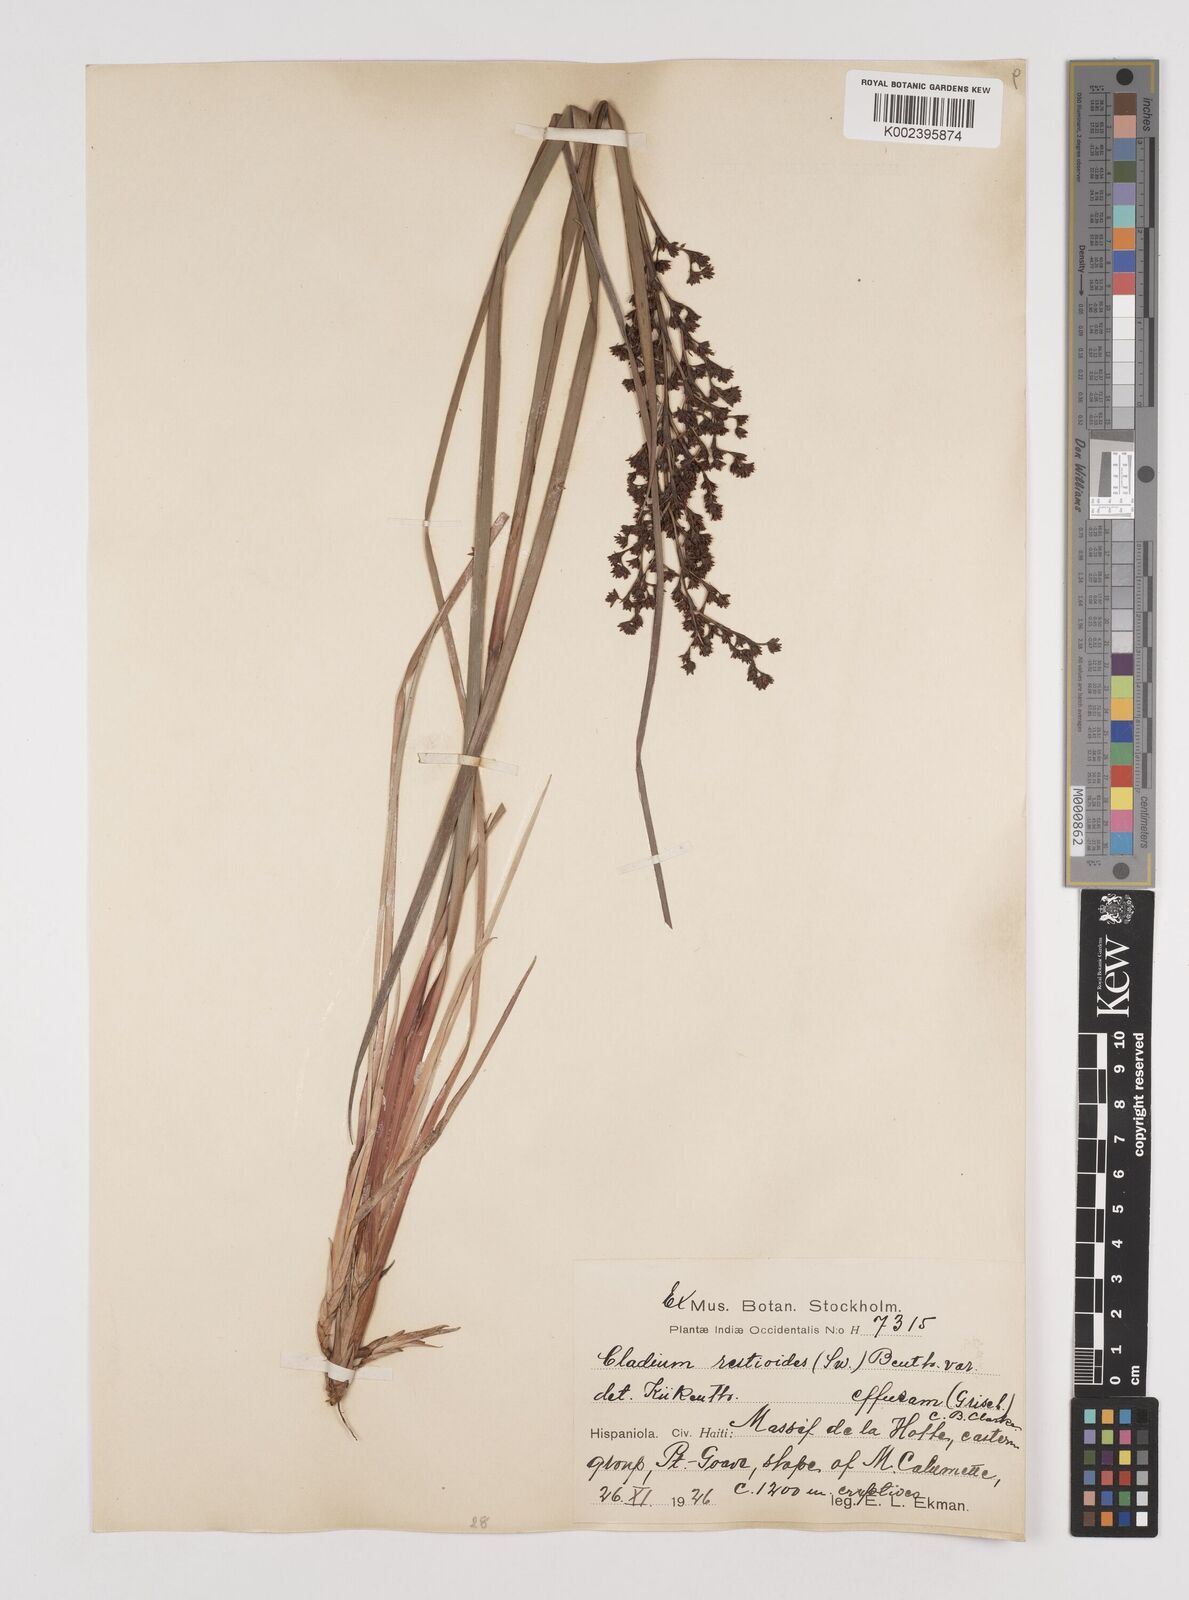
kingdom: Plantae
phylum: Tracheophyta
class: Liliopsida
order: Poales
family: Cyperaceae
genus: Machaerina
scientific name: Machaerina restioides
